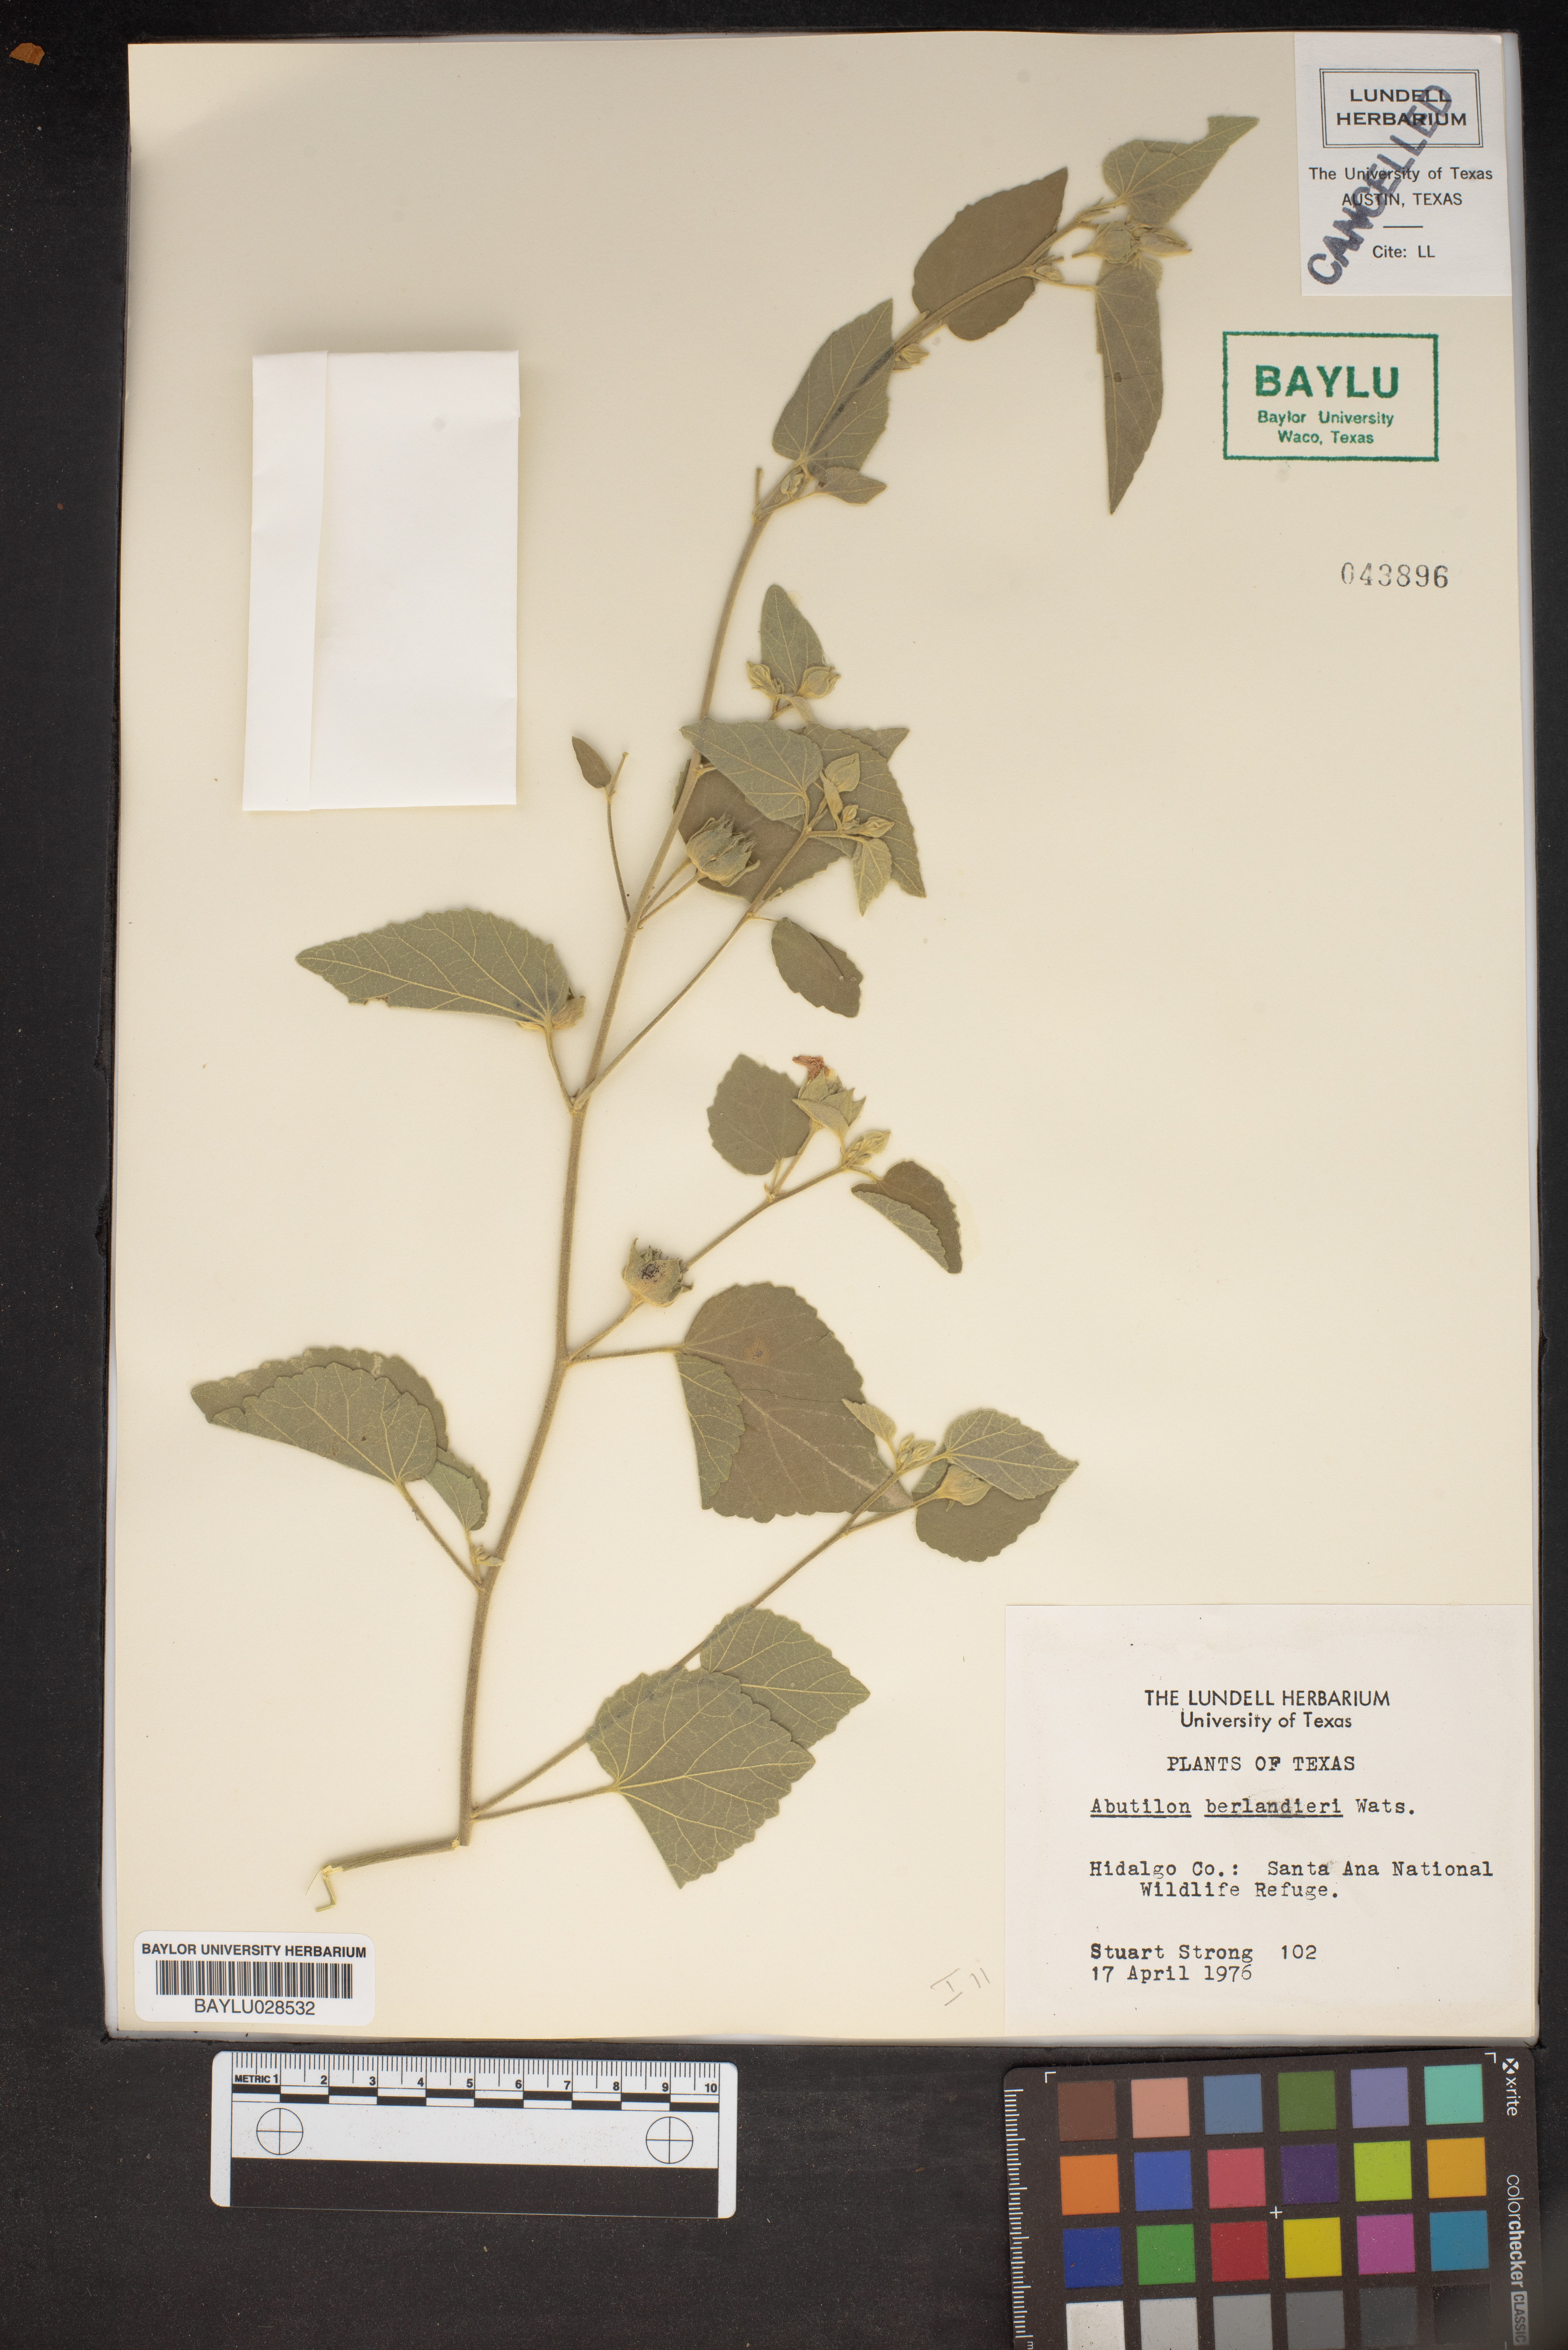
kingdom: Plantae
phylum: Tracheophyta
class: Magnoliopsida
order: Malvales
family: Malvaceae
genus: Abutilon
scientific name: Abutilon berlandieri
